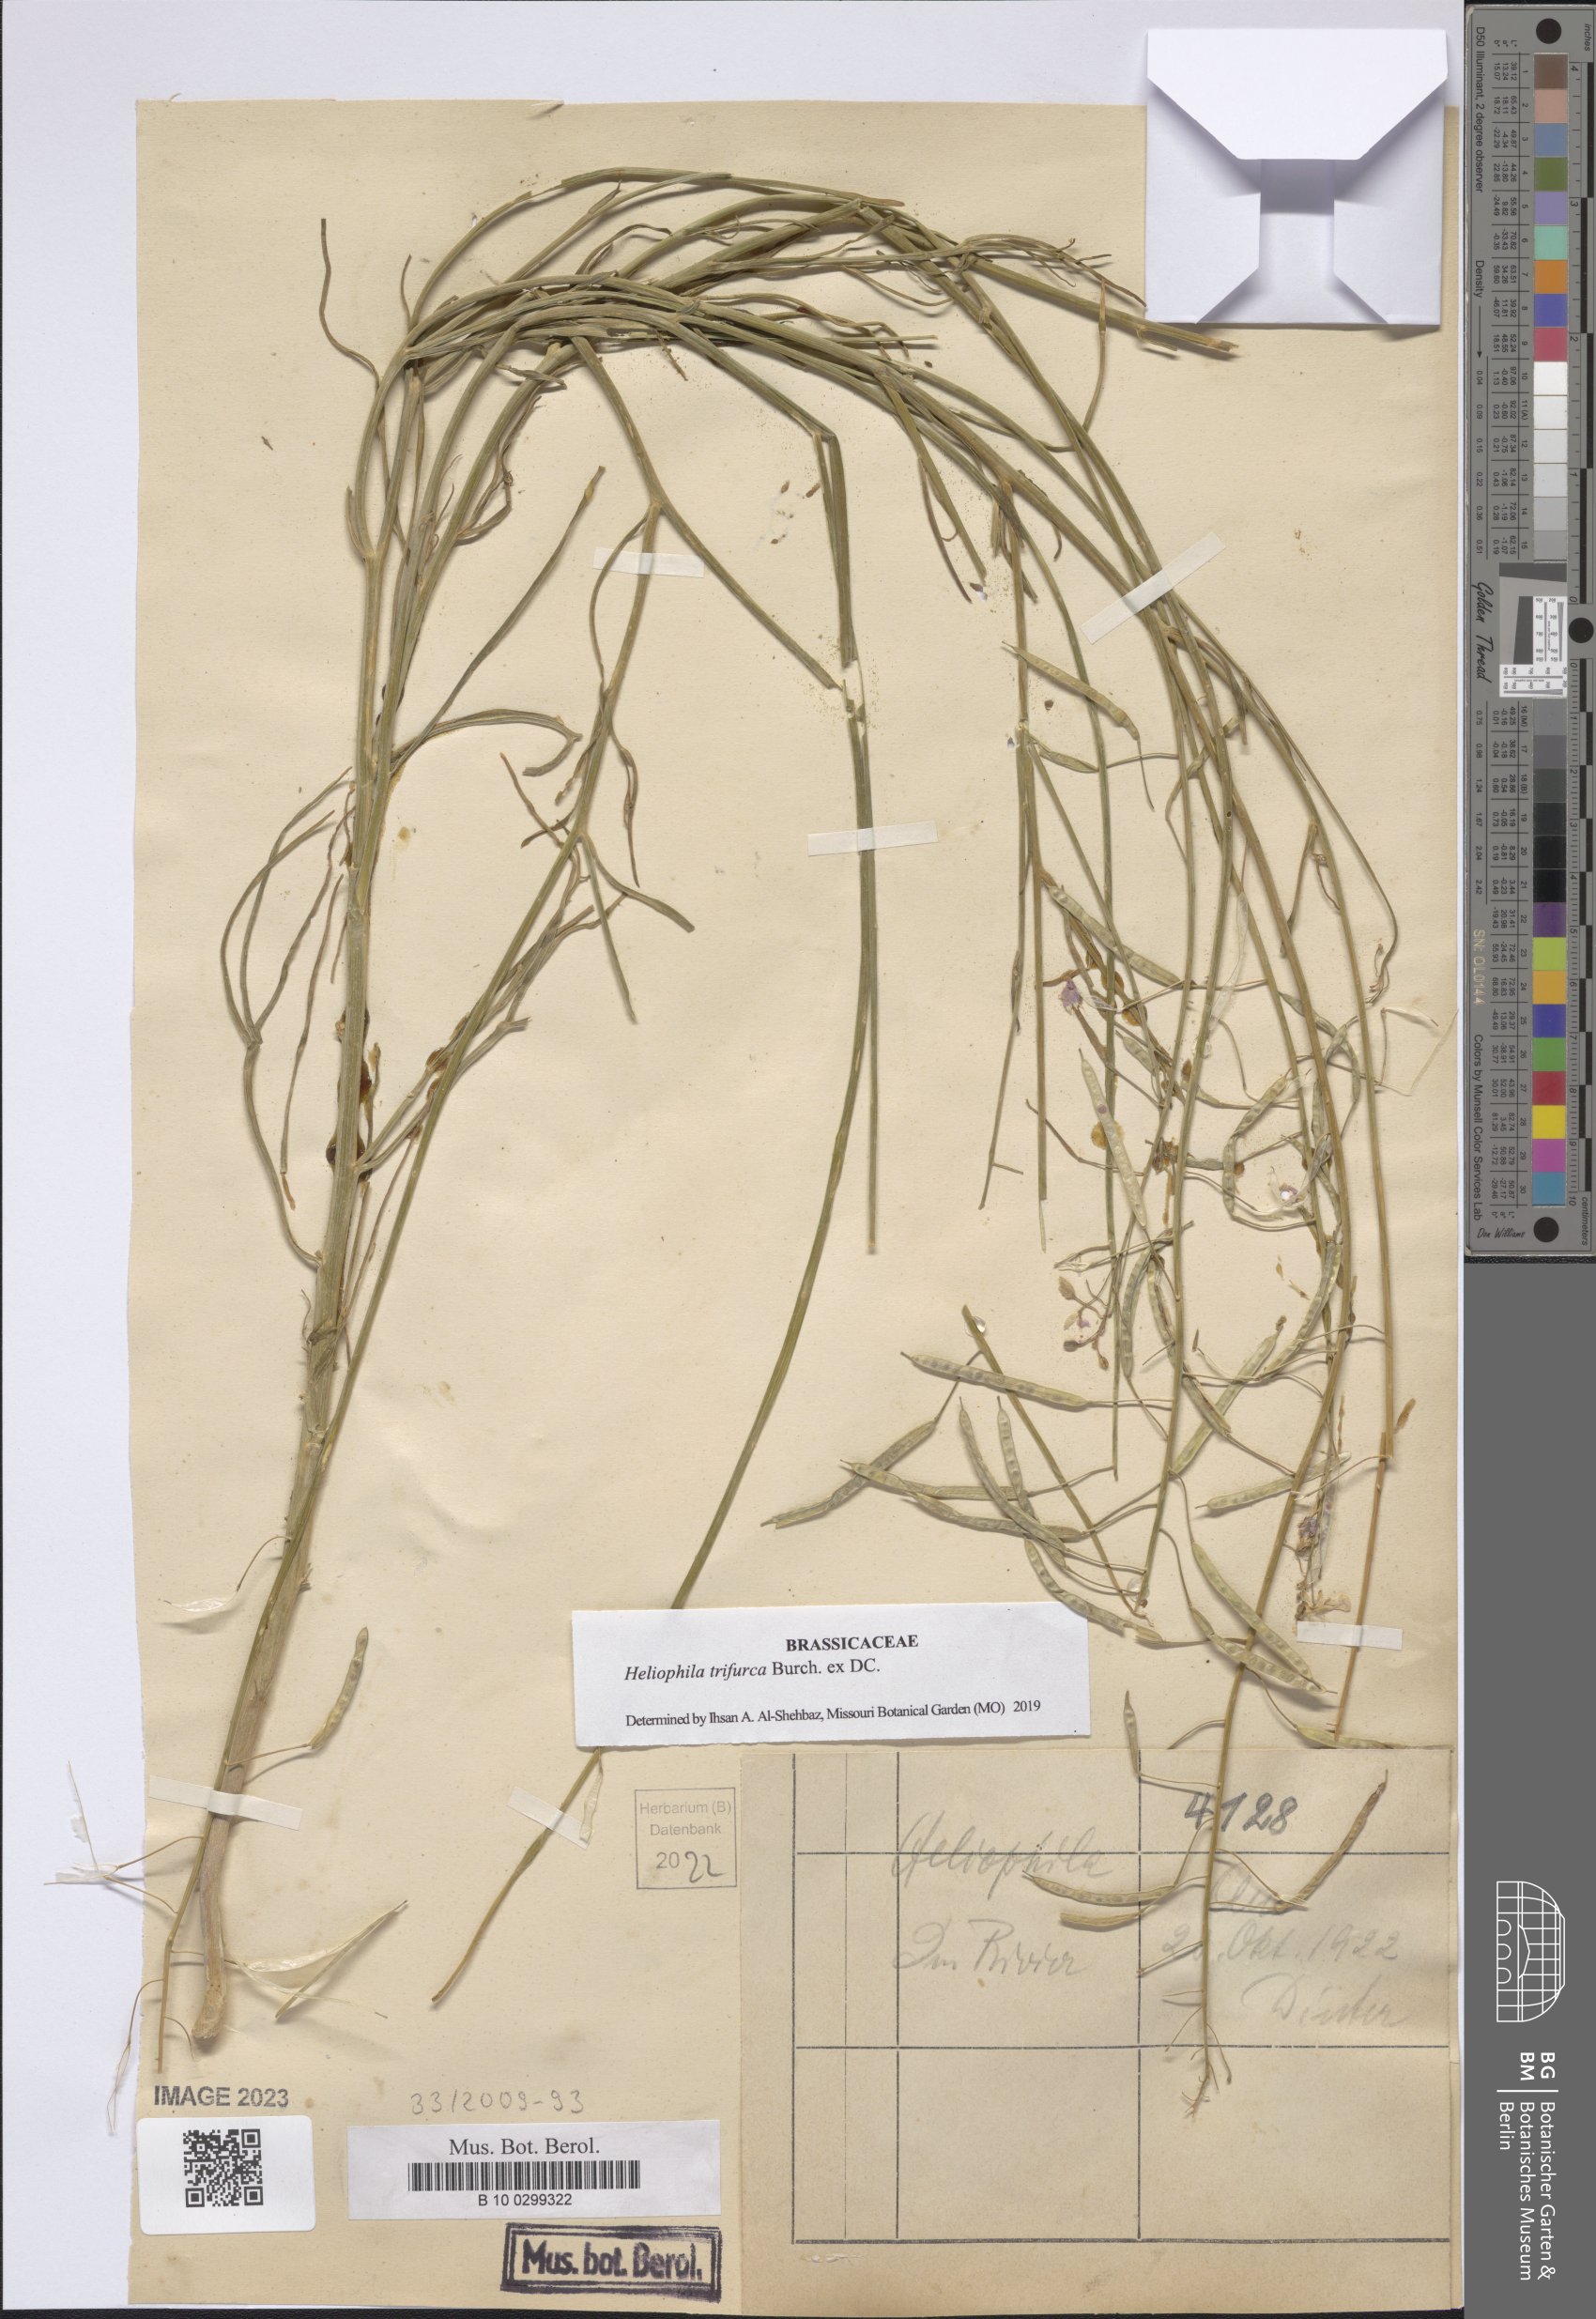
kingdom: Plantae
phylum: Tracheophyta
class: Magnoliopsida
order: Brassicales
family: Brassicaceae
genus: Heliophila
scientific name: Heliophila trifurca
